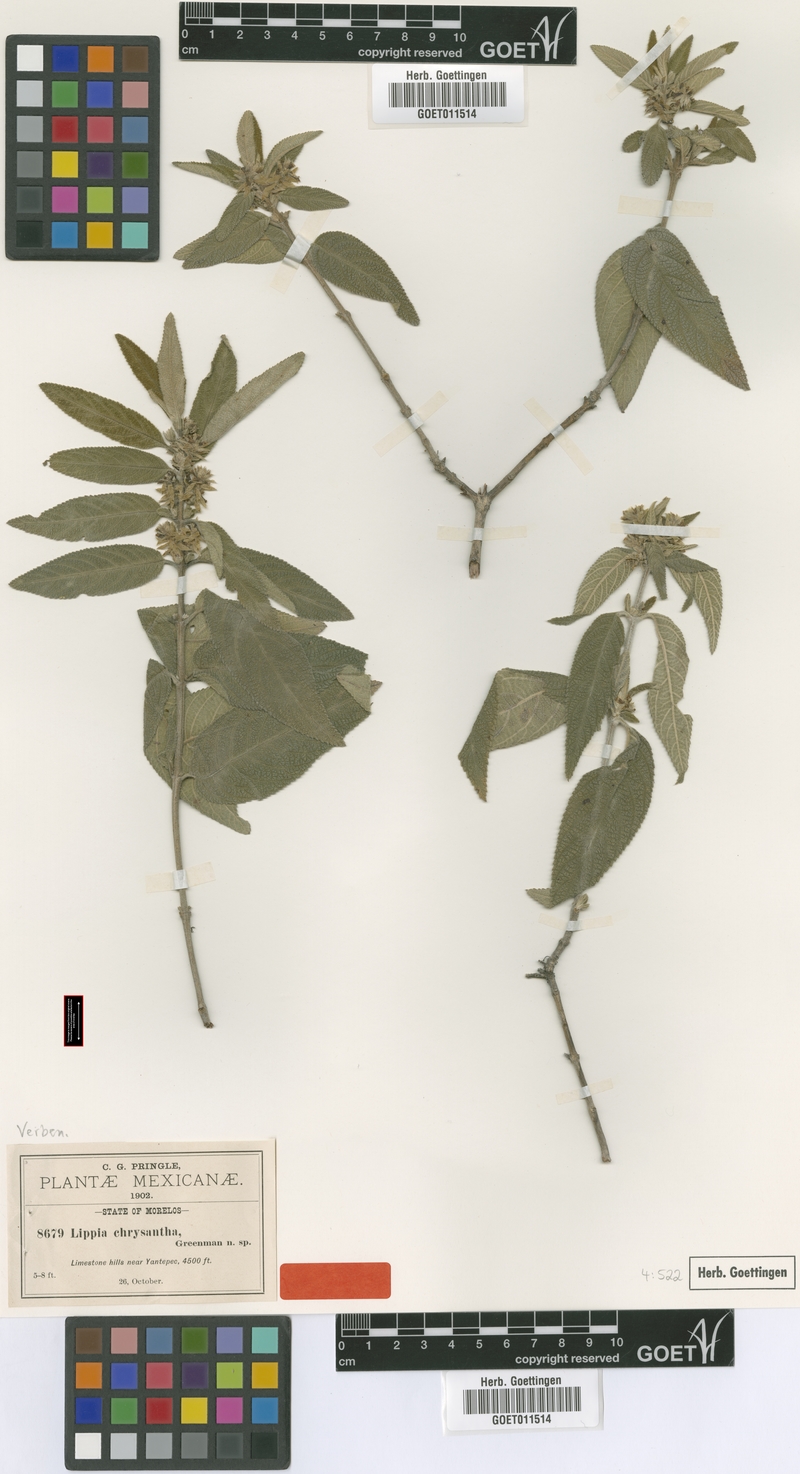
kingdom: Plantae
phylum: Tracheophyta
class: Magnoliopsida
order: Lamiales
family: Verbenaceae
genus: Lippia
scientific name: Lippia chrysantha
